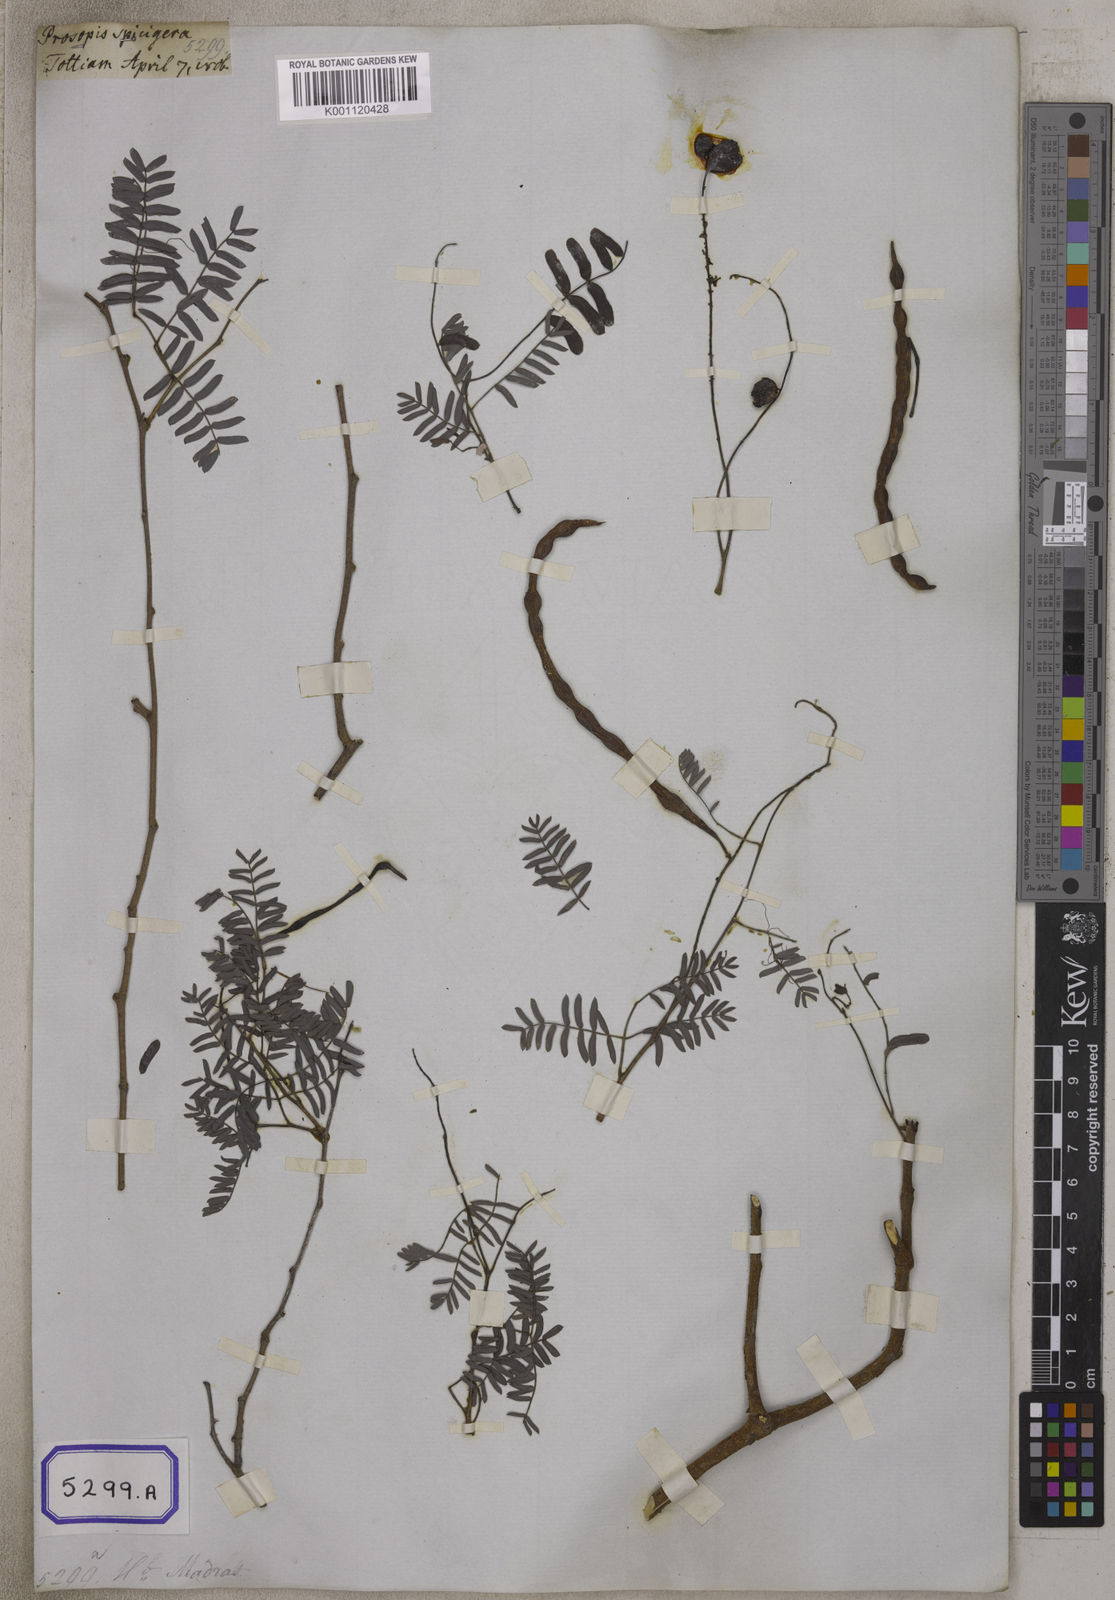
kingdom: Plantae
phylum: Tracheophyta
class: Magnoliopsida
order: Fabales
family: Fabaceae
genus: Prosopis
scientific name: Prosopis cineraria
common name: Jandi
